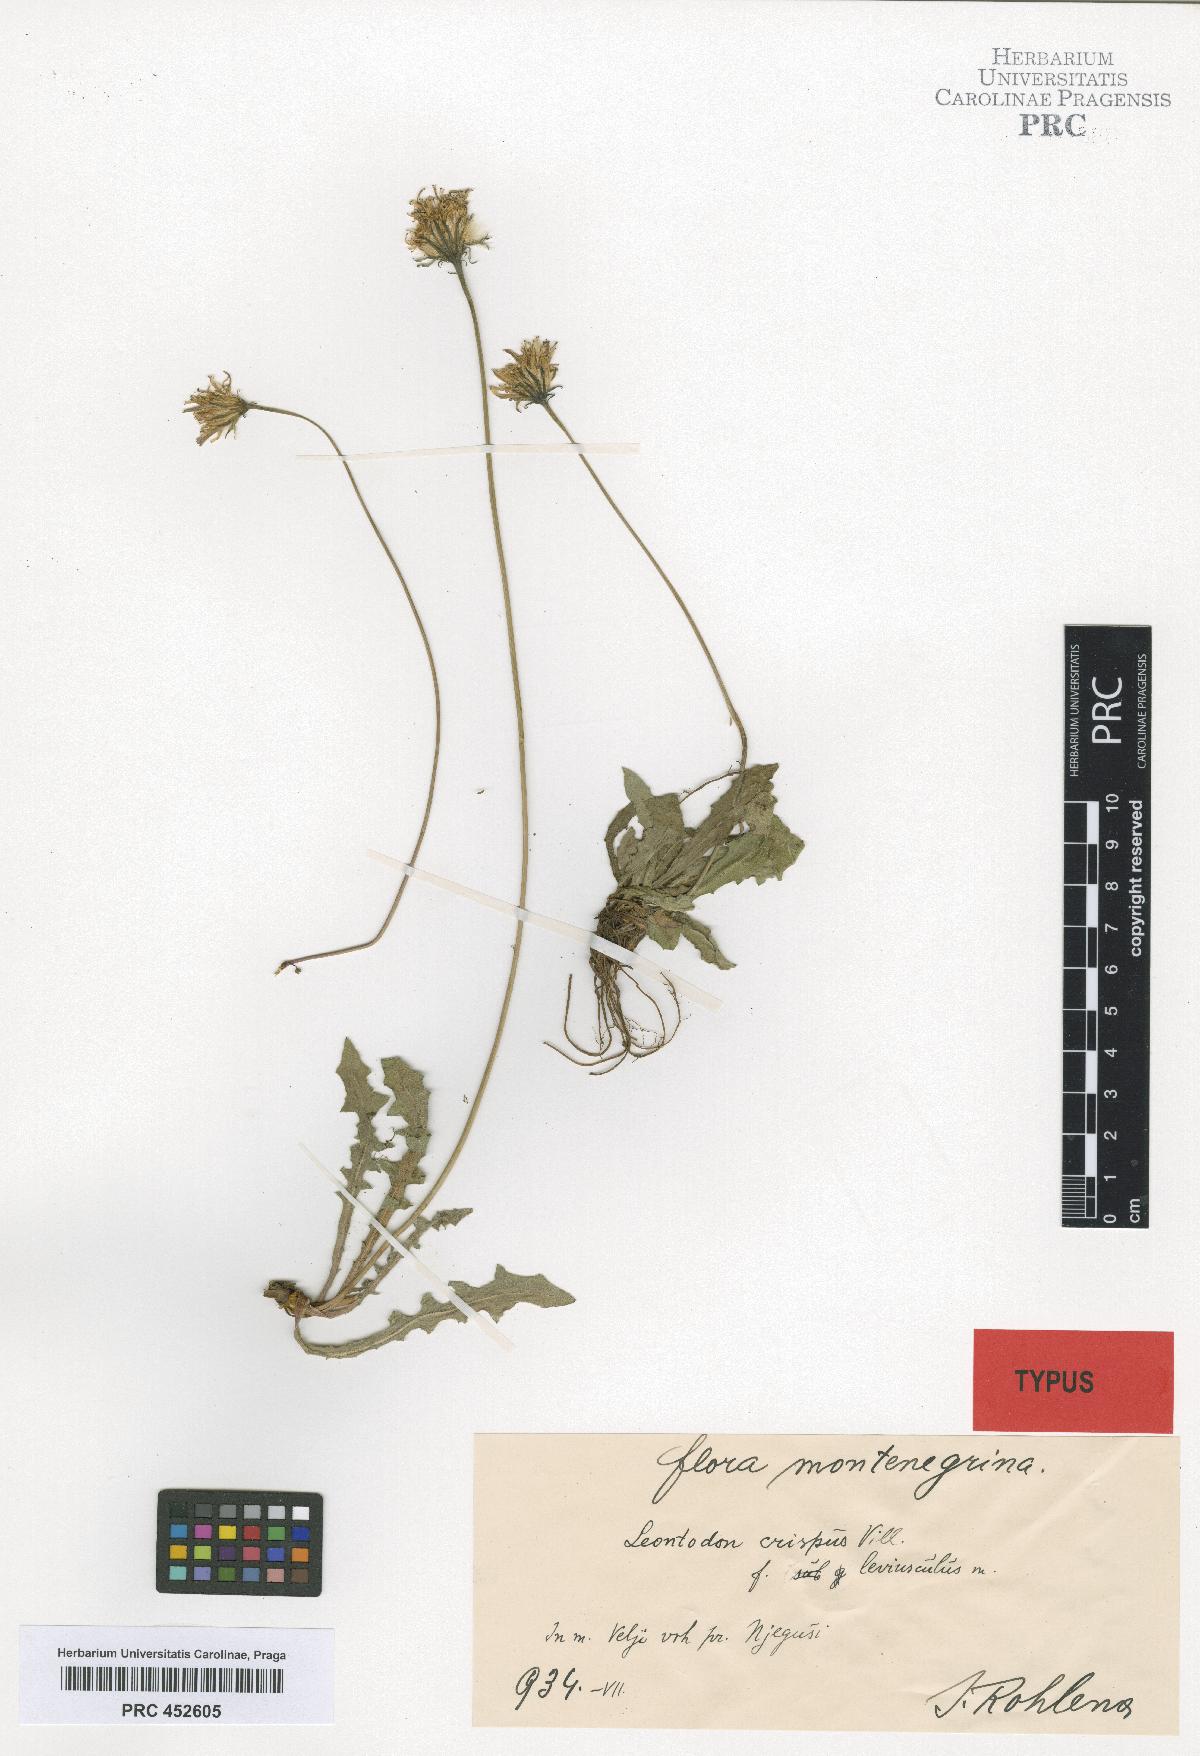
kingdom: Plantae
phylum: Tracheophyta
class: Magnoliopsida
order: Asterales
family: Asteraceae
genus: Leontodon
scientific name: Leontodon crispus
